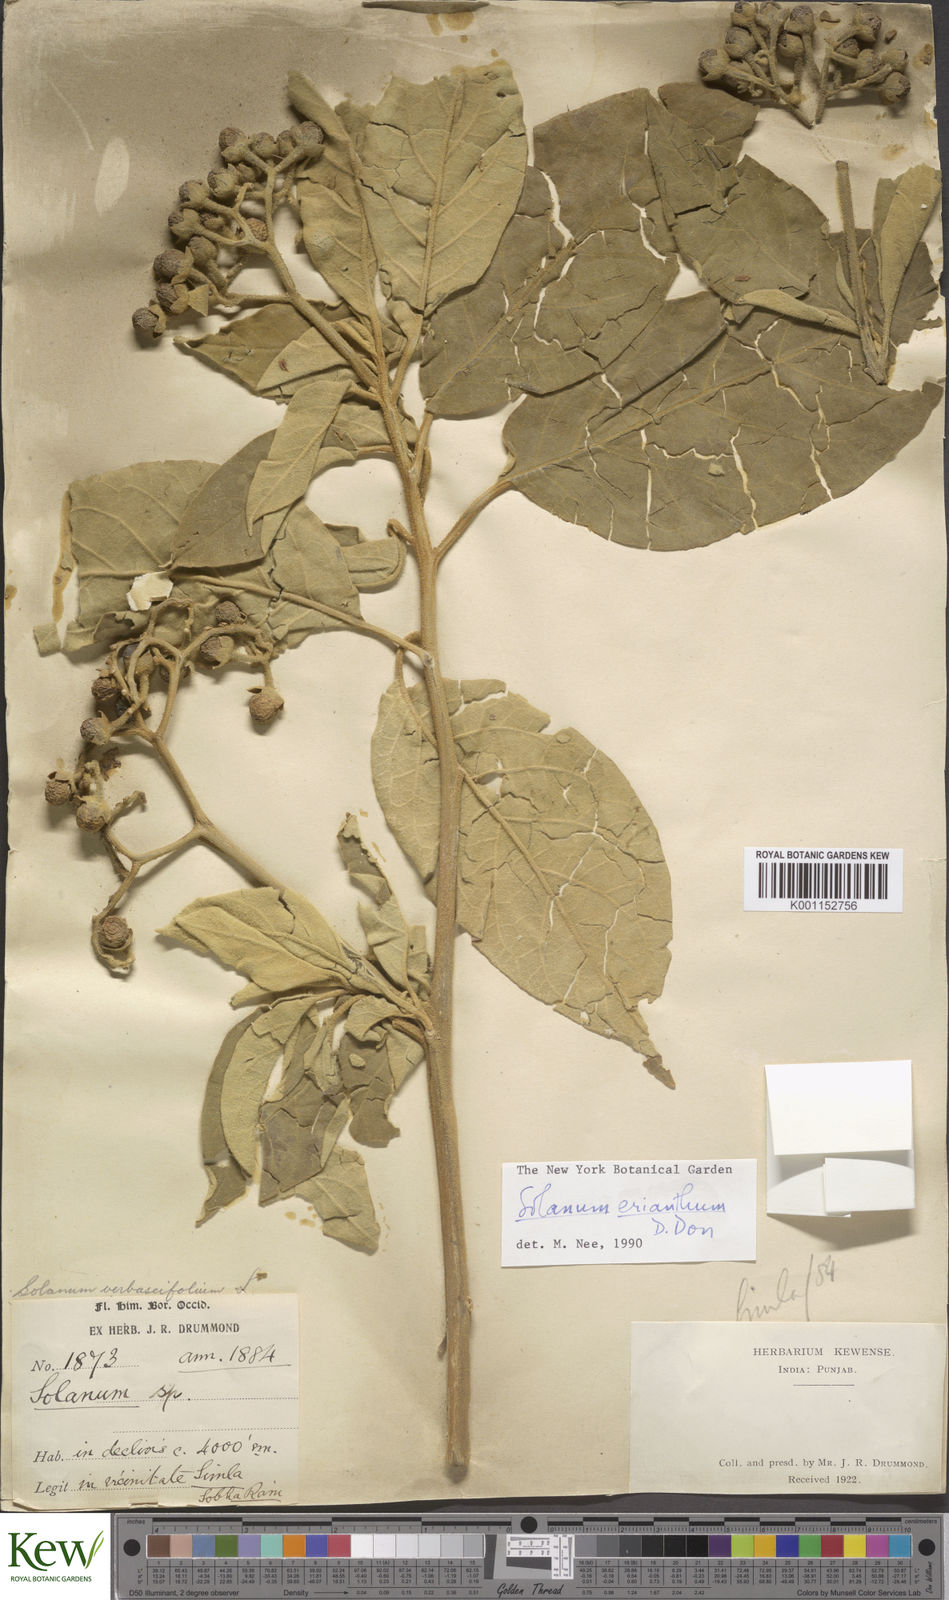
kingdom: Plantae
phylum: Tracheophyta
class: Magnoliopsida
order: Solanales
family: Solanaceae
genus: Solanum
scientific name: Solanum erianthum
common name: Tobacco-tree
